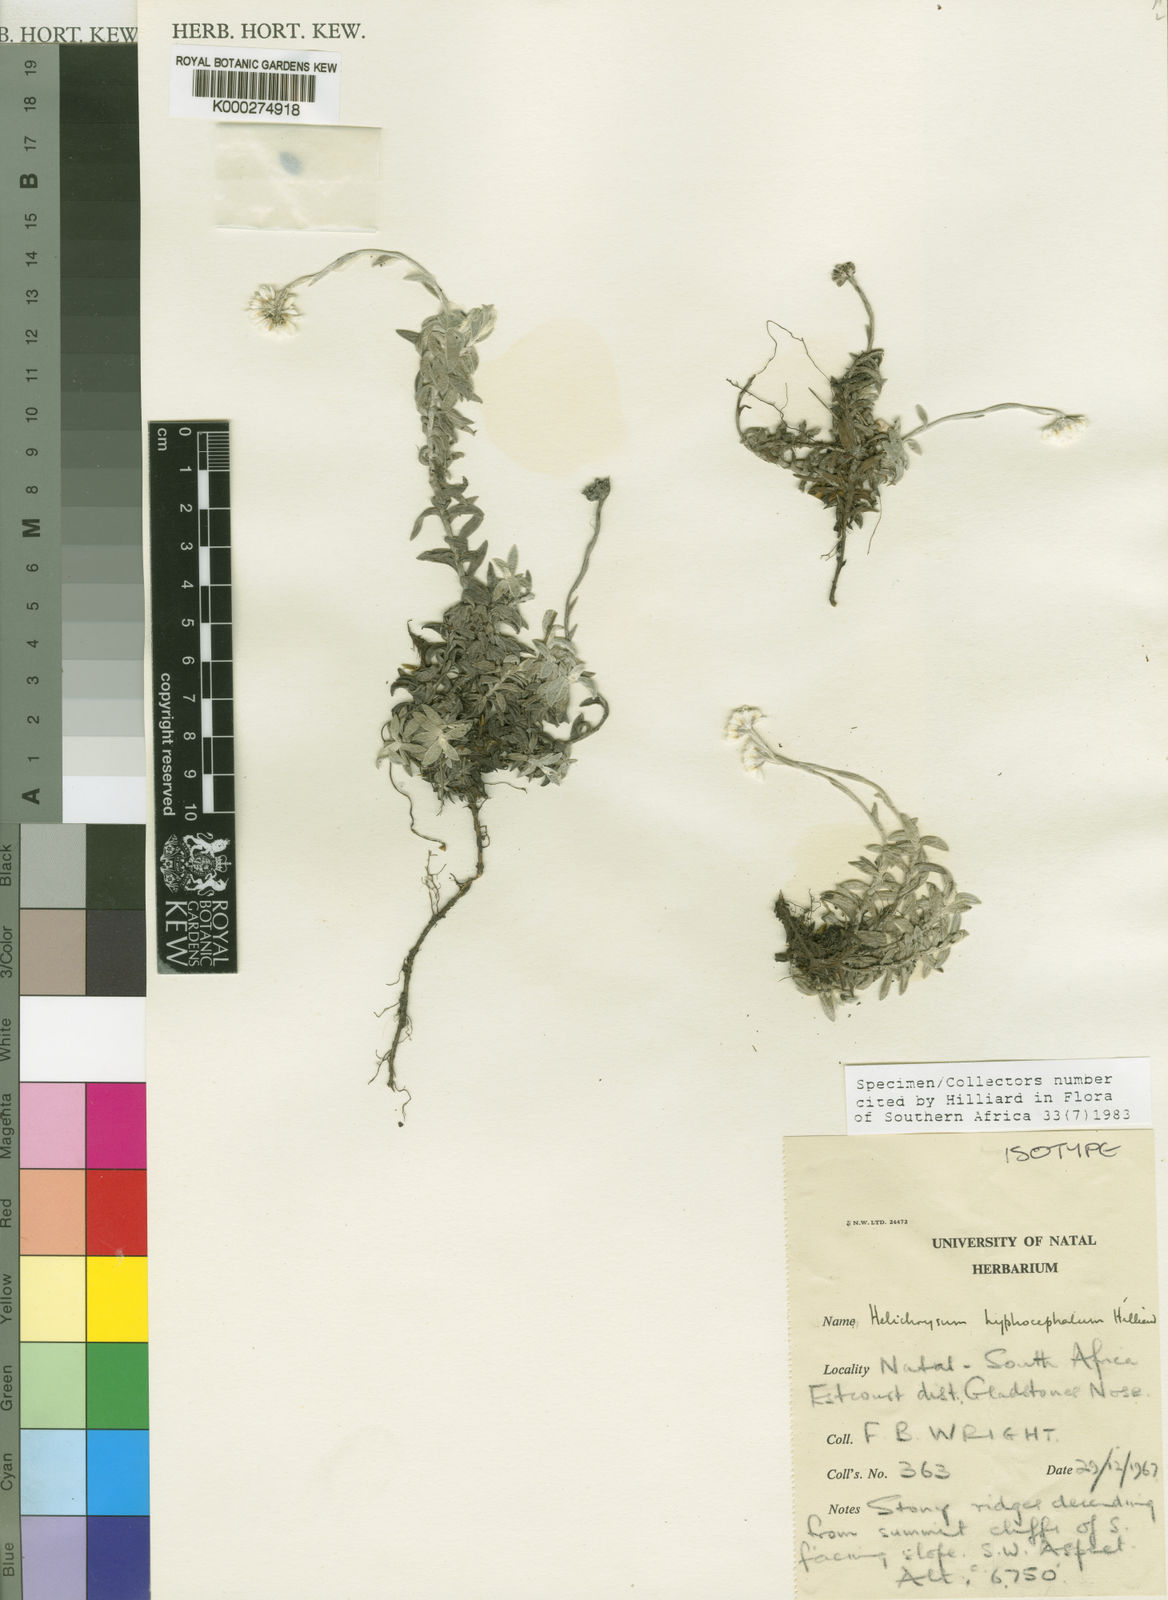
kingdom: Plantae
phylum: Tracheophyta
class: Magnoliopsida
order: Asterales
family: Asteraceae
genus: Helichrysum
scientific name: Helichrysum hyphocephalum
